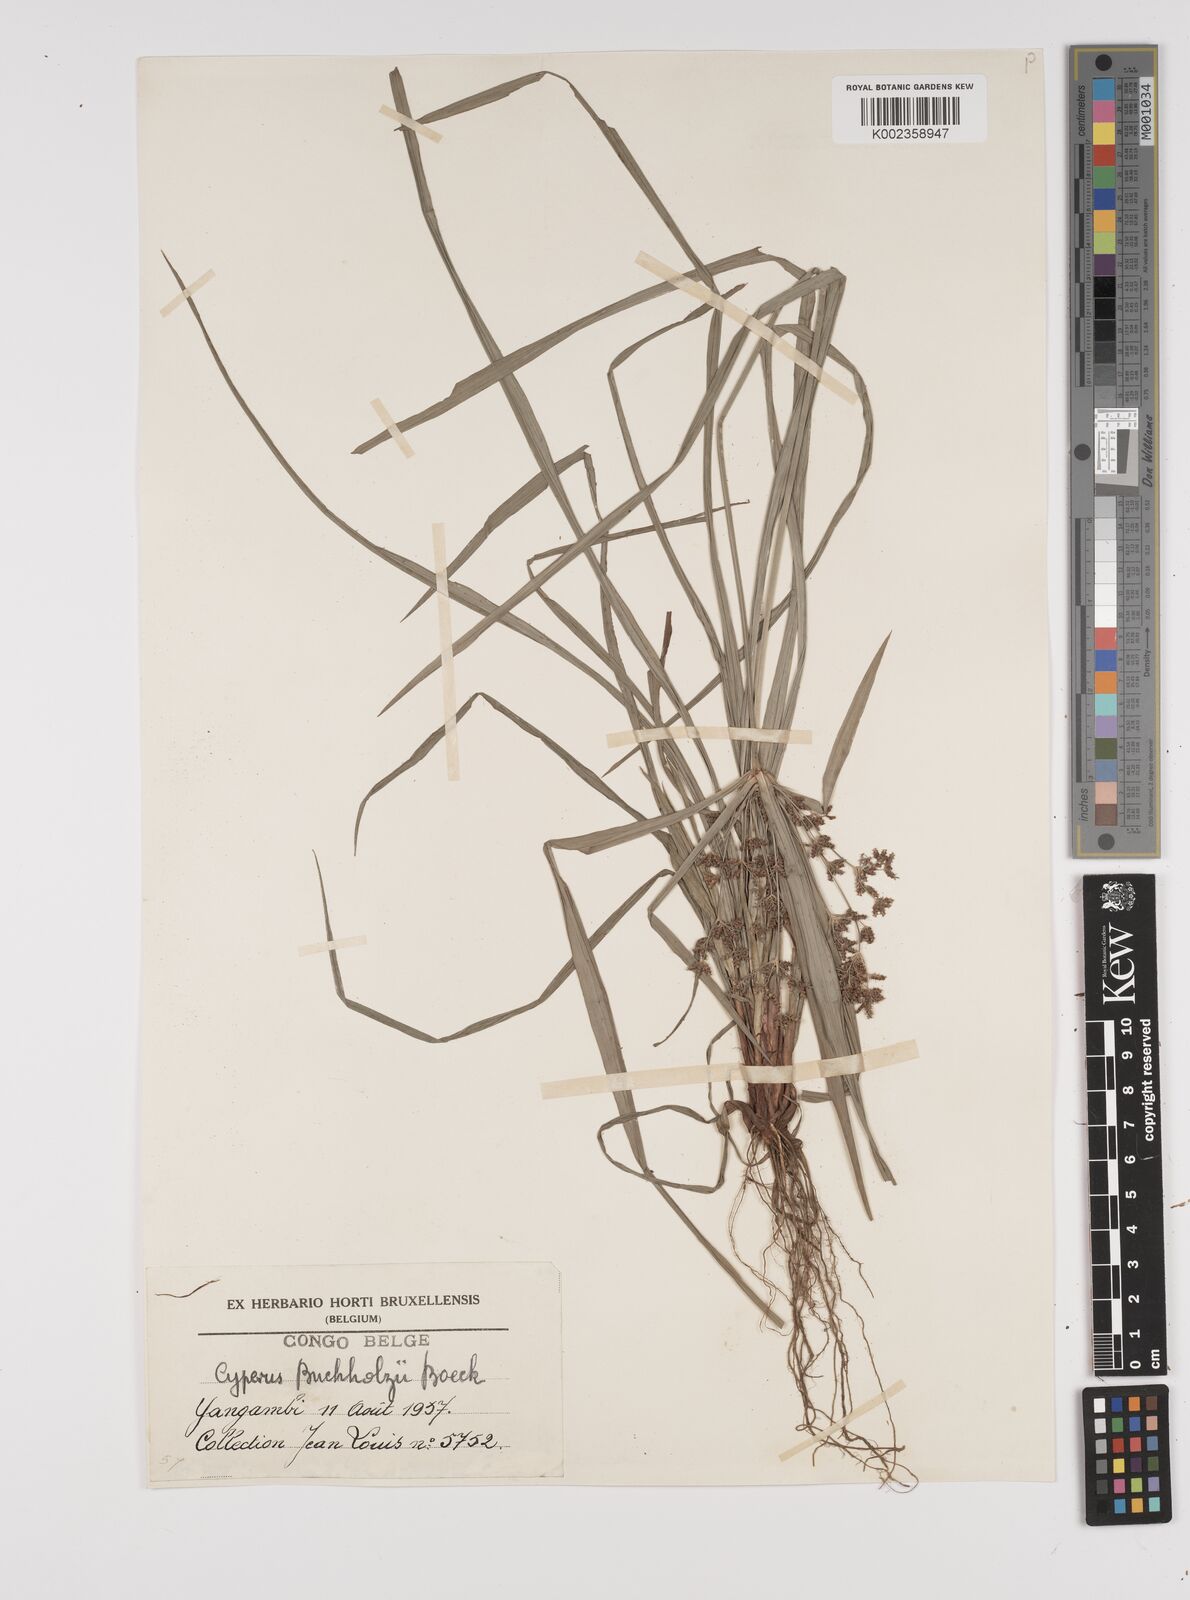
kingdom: Plantae
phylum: Tracheophyta
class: Liliopsida
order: Poales
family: Cyperaceae
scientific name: Cyperaceae
